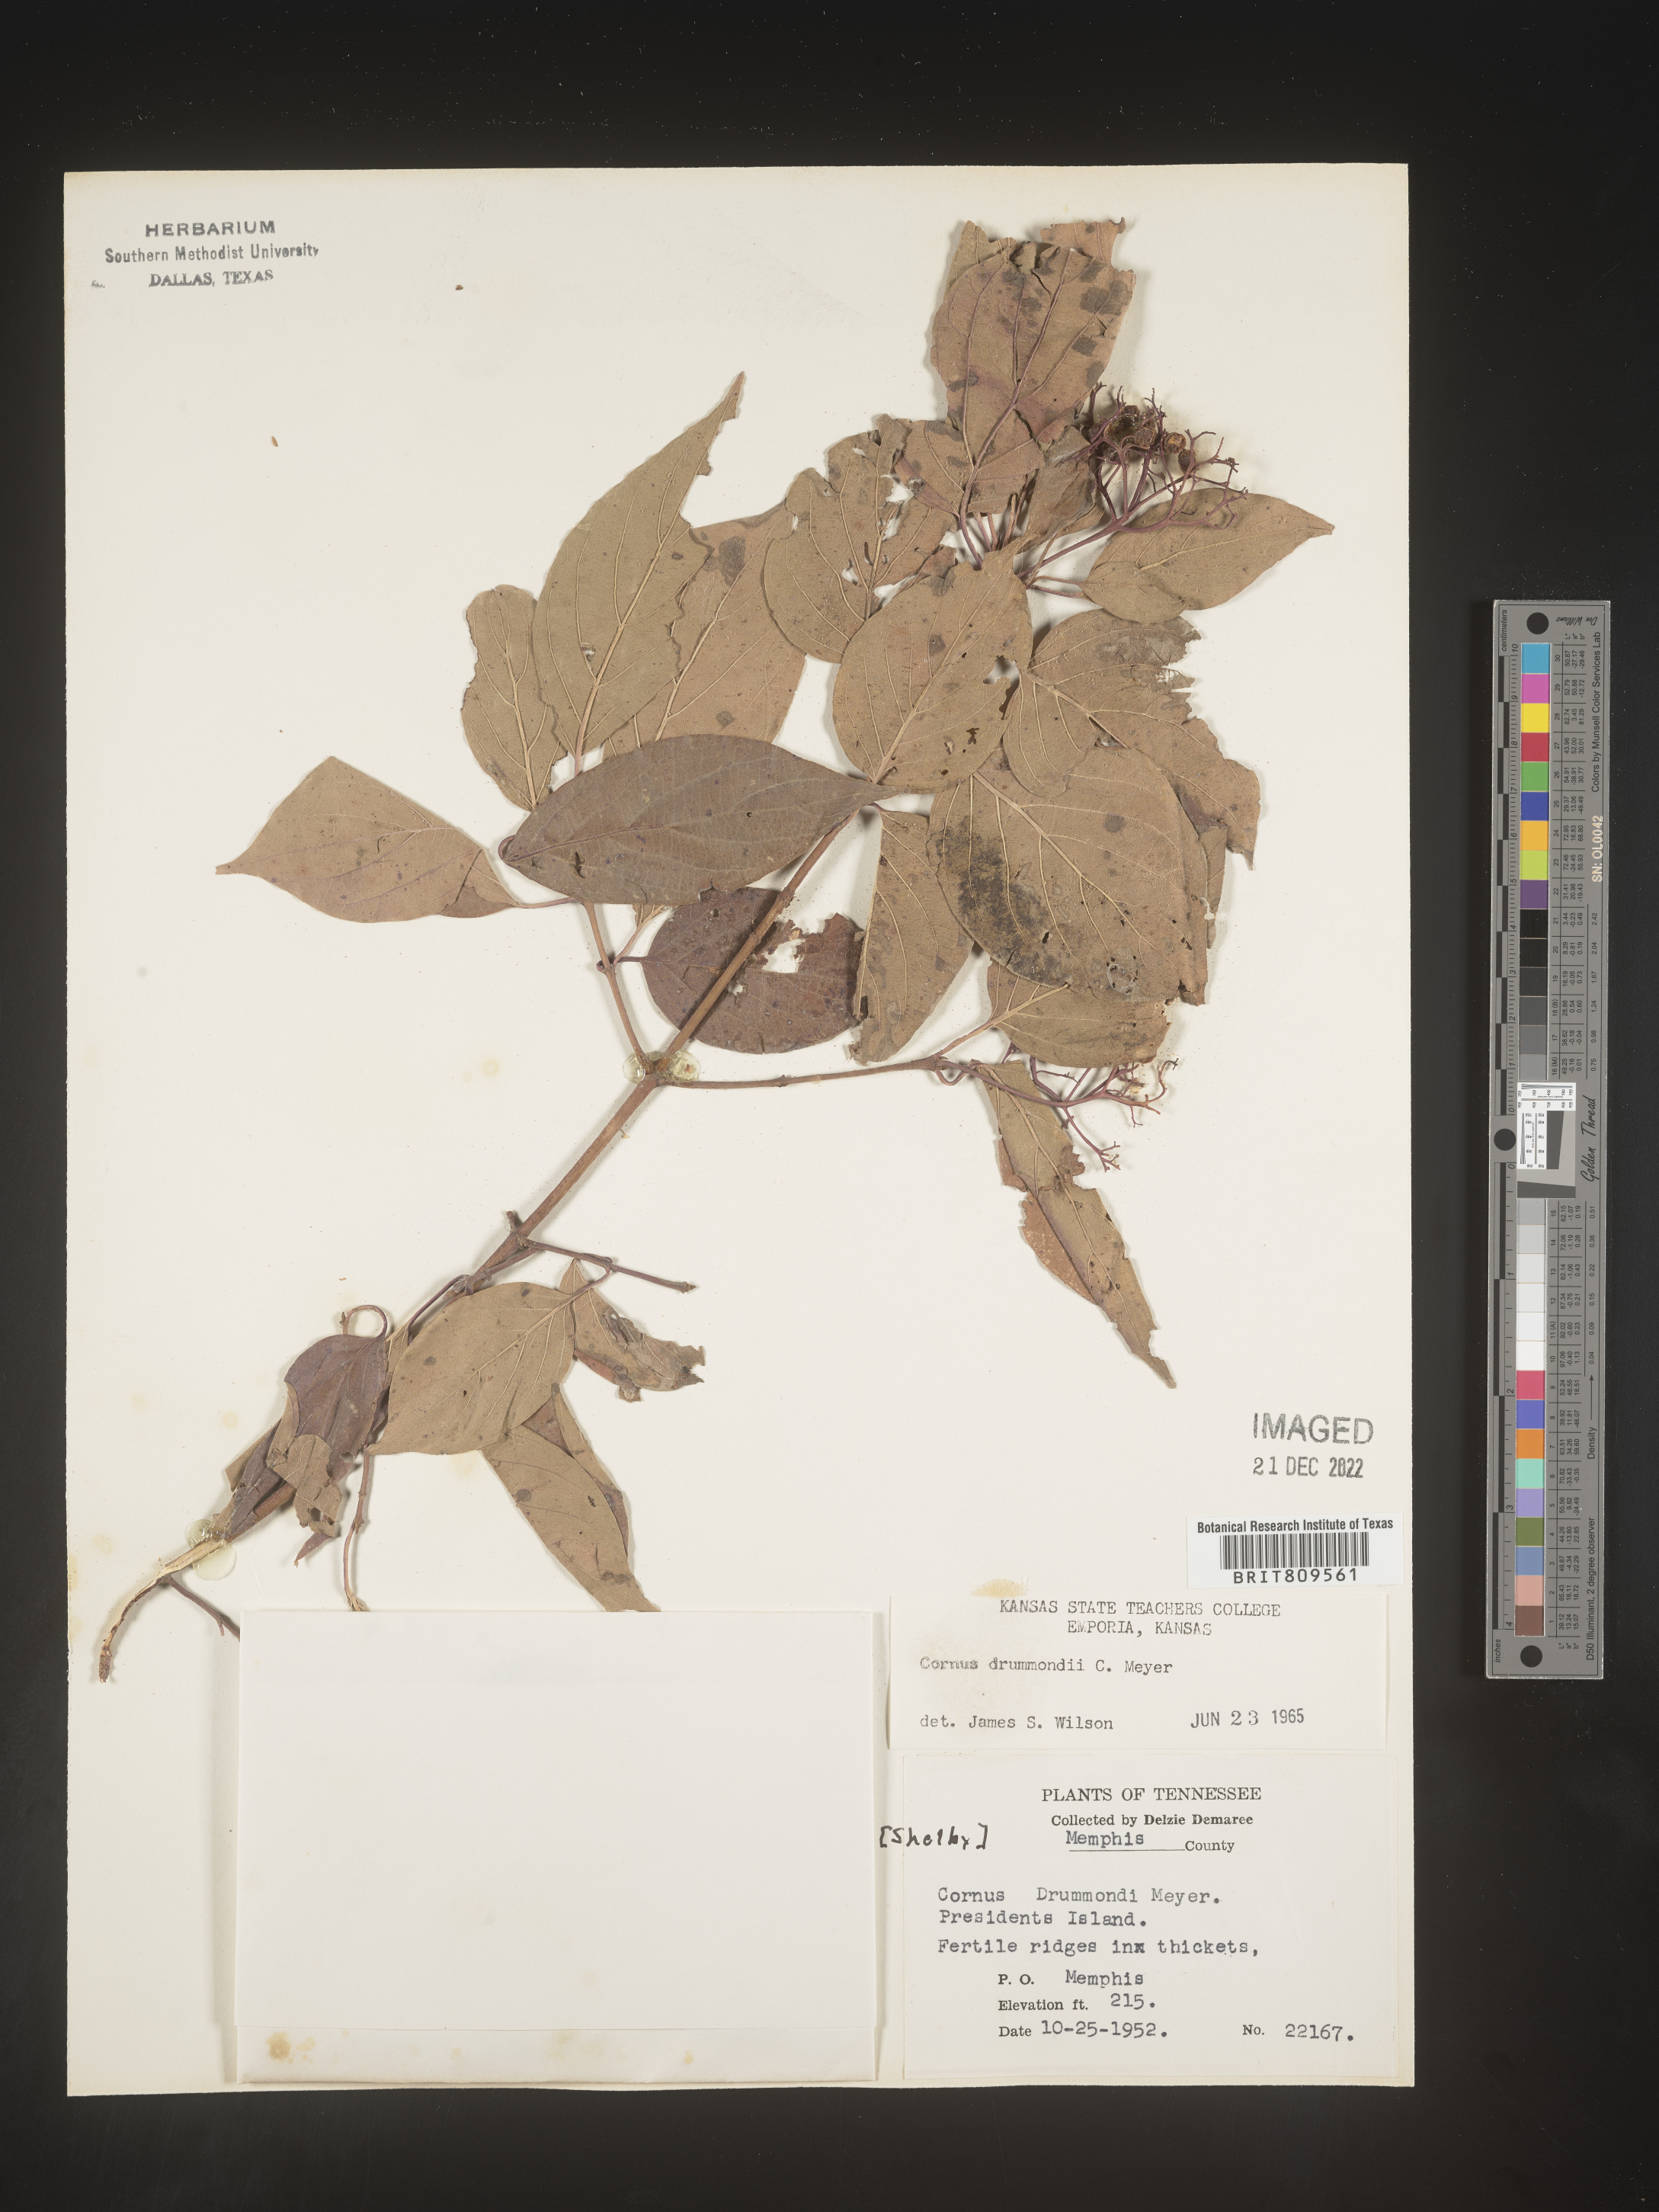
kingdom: Plantae
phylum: Tracheophyta
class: Magnoliopsida
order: Cornales
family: Cornaceae
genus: Cornus
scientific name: Cornus drummondii
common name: Rough-leaf dogwood
